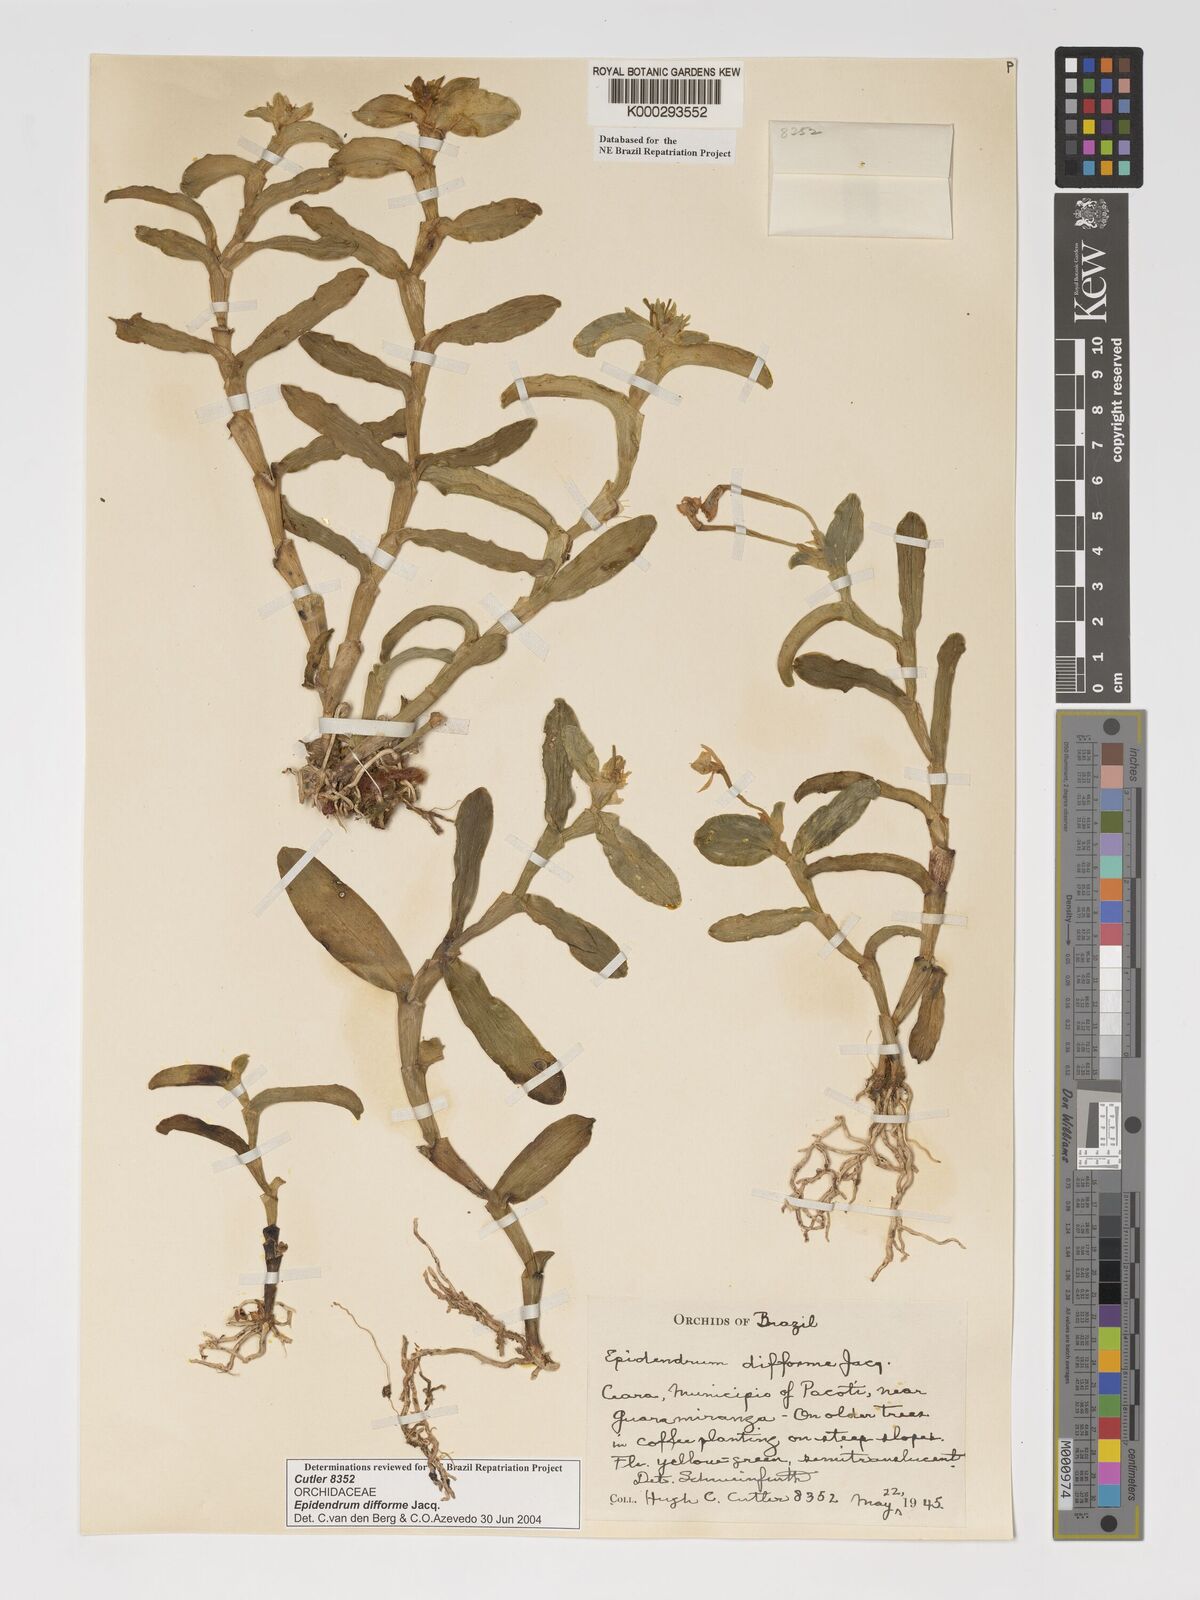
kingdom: Plantae
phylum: Tracheophyta
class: Liliopsida
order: Asparagales
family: Orchidaceae
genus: Epidendrum
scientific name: Epidendrum difforme
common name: Umbrella epidendrum
